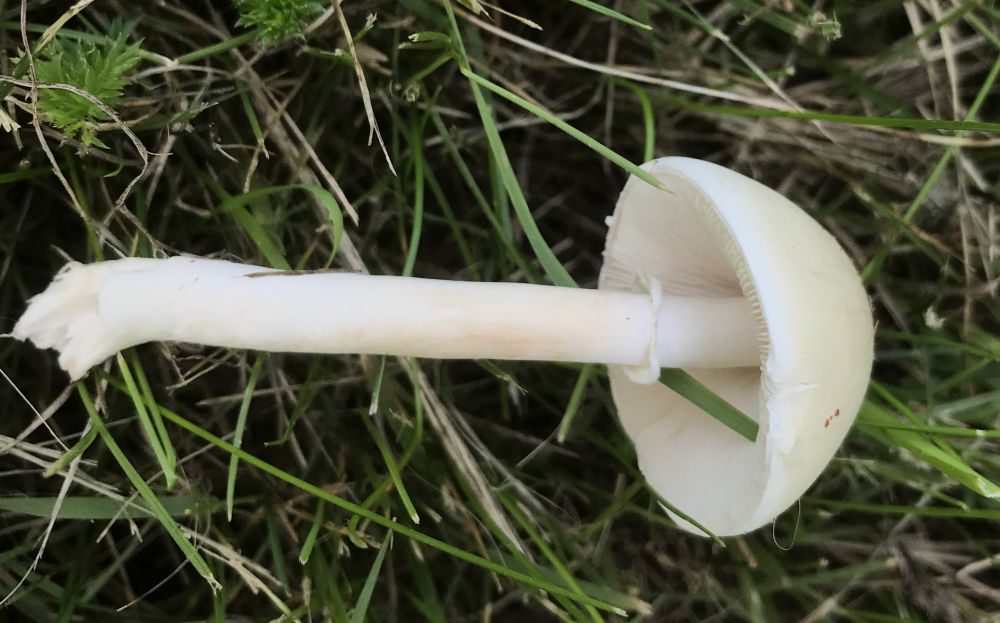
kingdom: Fungi
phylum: Basidiomycota
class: Agaricomycetes
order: Agaricales
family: Agaricaceae
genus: Leucoagaricus
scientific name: Leucoagaricus leucothites
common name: rosabladet silkehat
